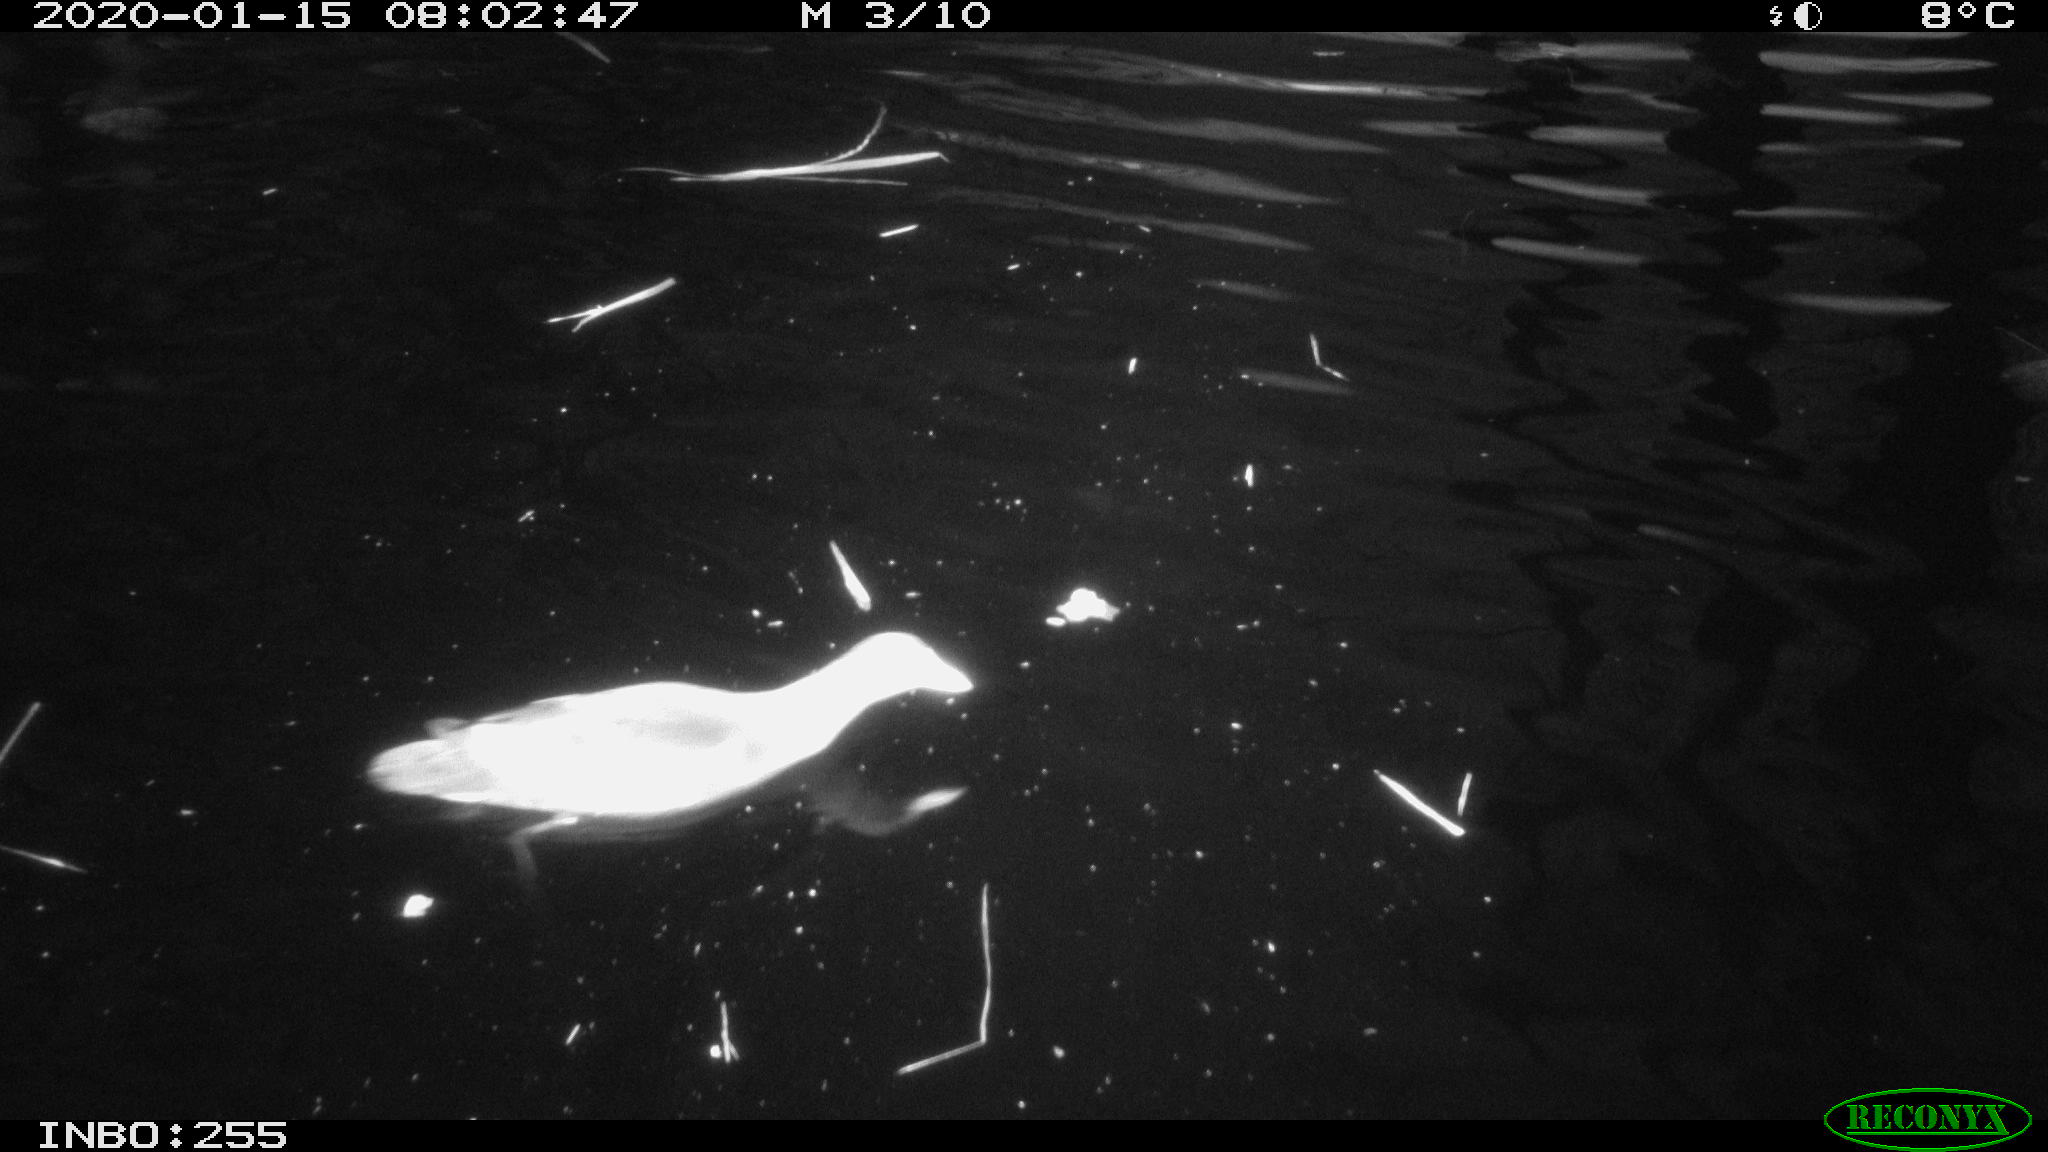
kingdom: Animalia
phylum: Chordata
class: Aves
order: Gruiformes
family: Rallidae
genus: Gallinula
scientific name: Gallinula chloropus
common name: Common moorhen
